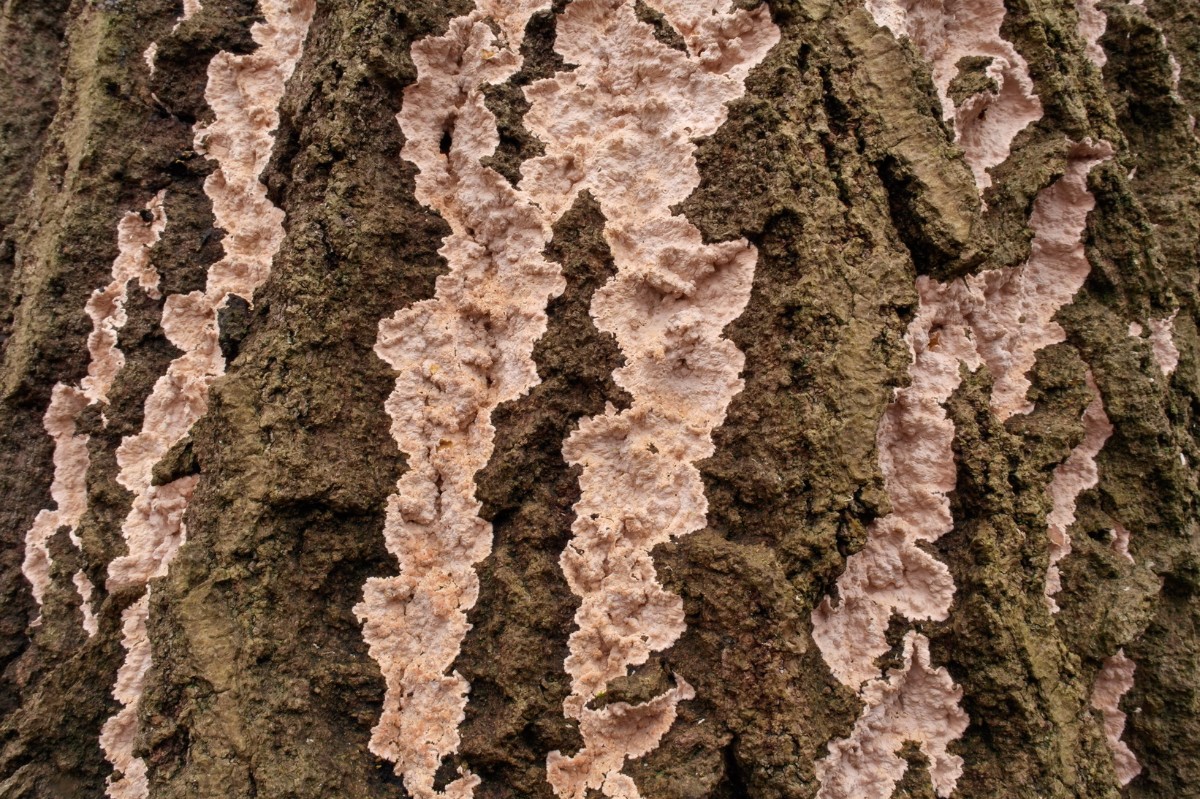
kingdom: Fungi
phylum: Basidiomycota
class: Agaricomycetes
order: Corticiales
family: Corticiaceae
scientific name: Corticiaceae
